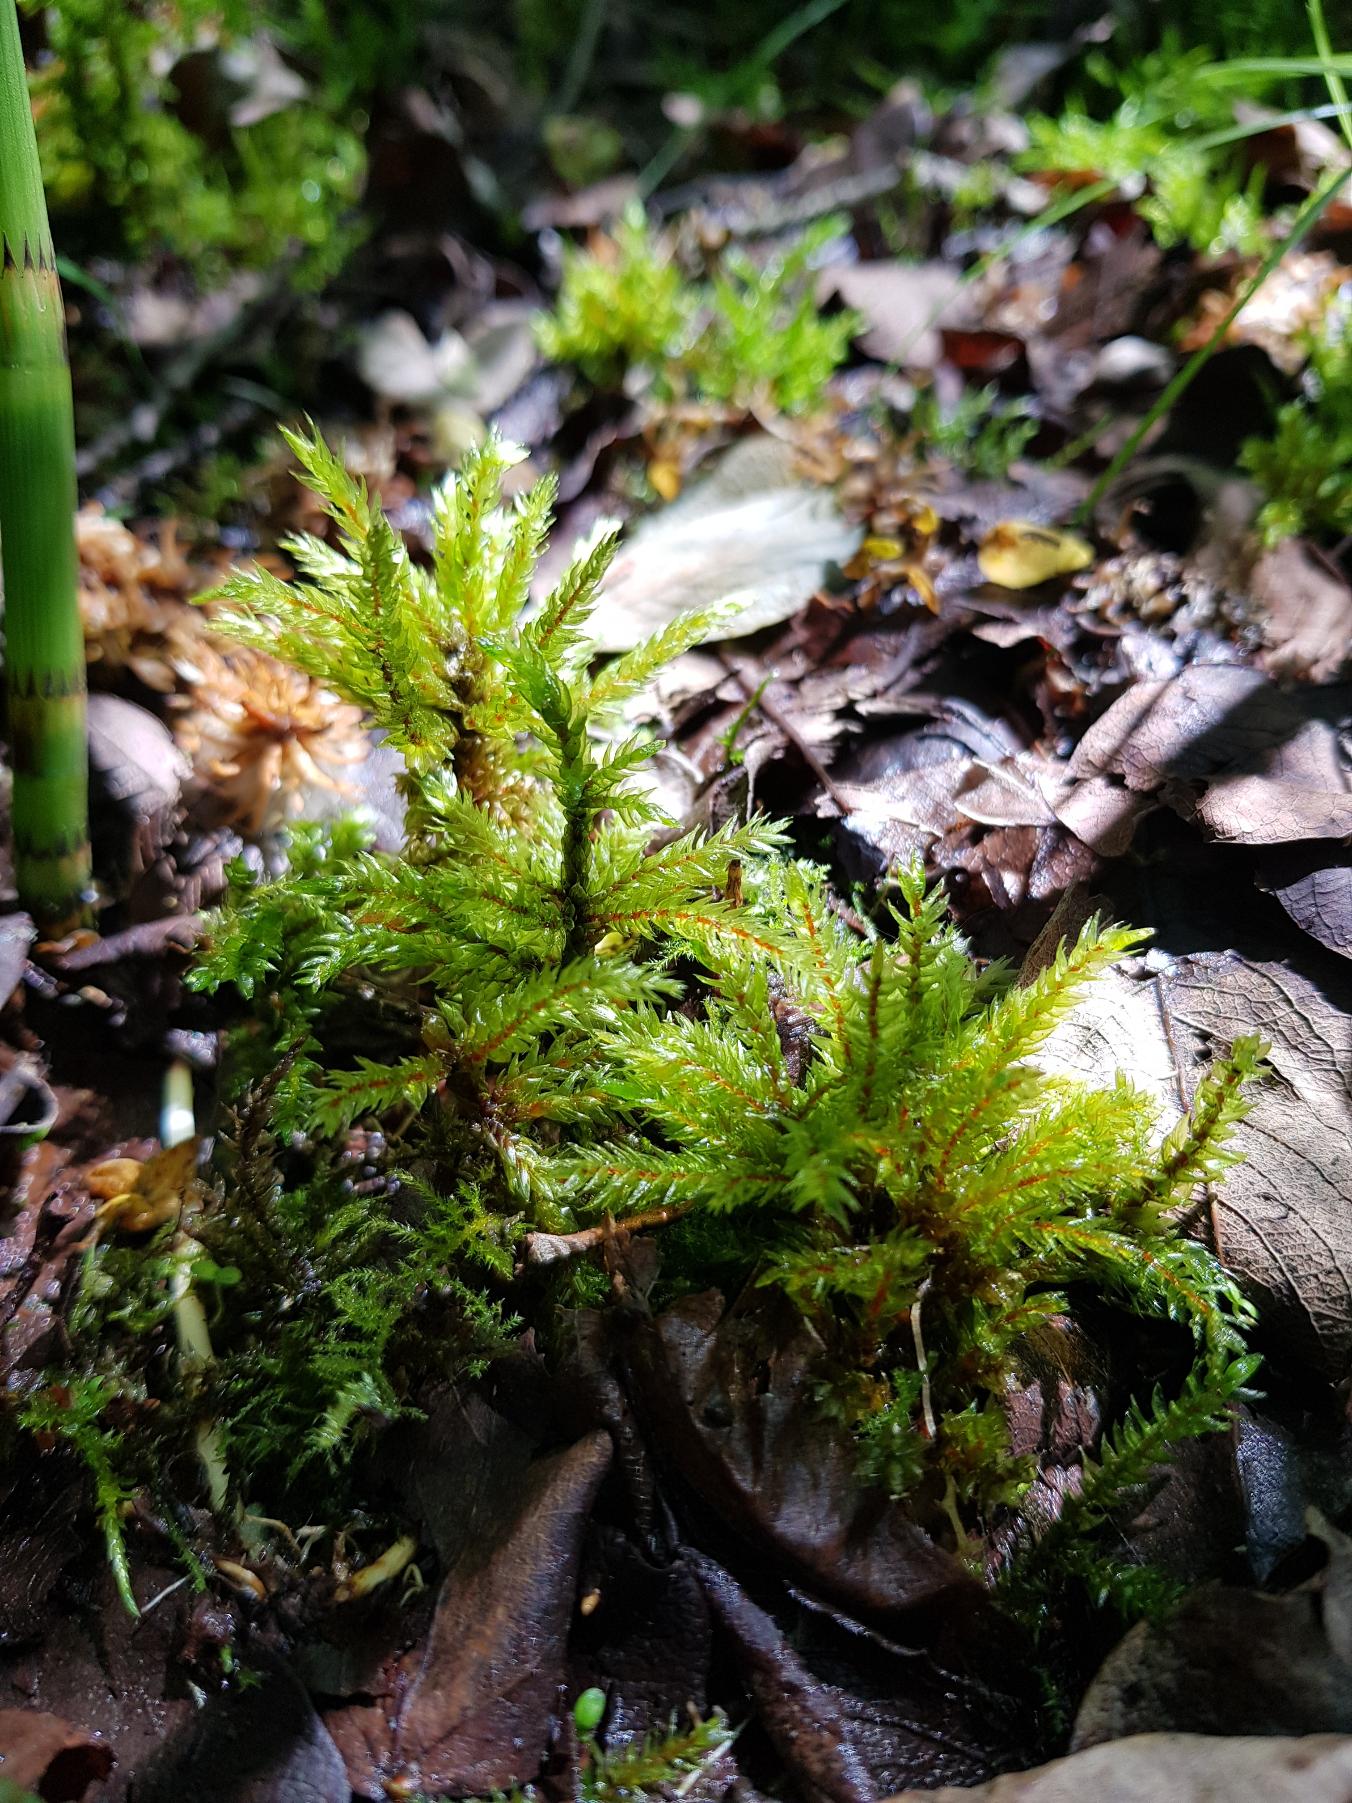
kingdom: Plantae
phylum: Bryophyta
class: Bryopsida
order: Hypnales
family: Climaciaceae
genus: Climacium
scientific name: Climacium dendroides
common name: Stor engkost
